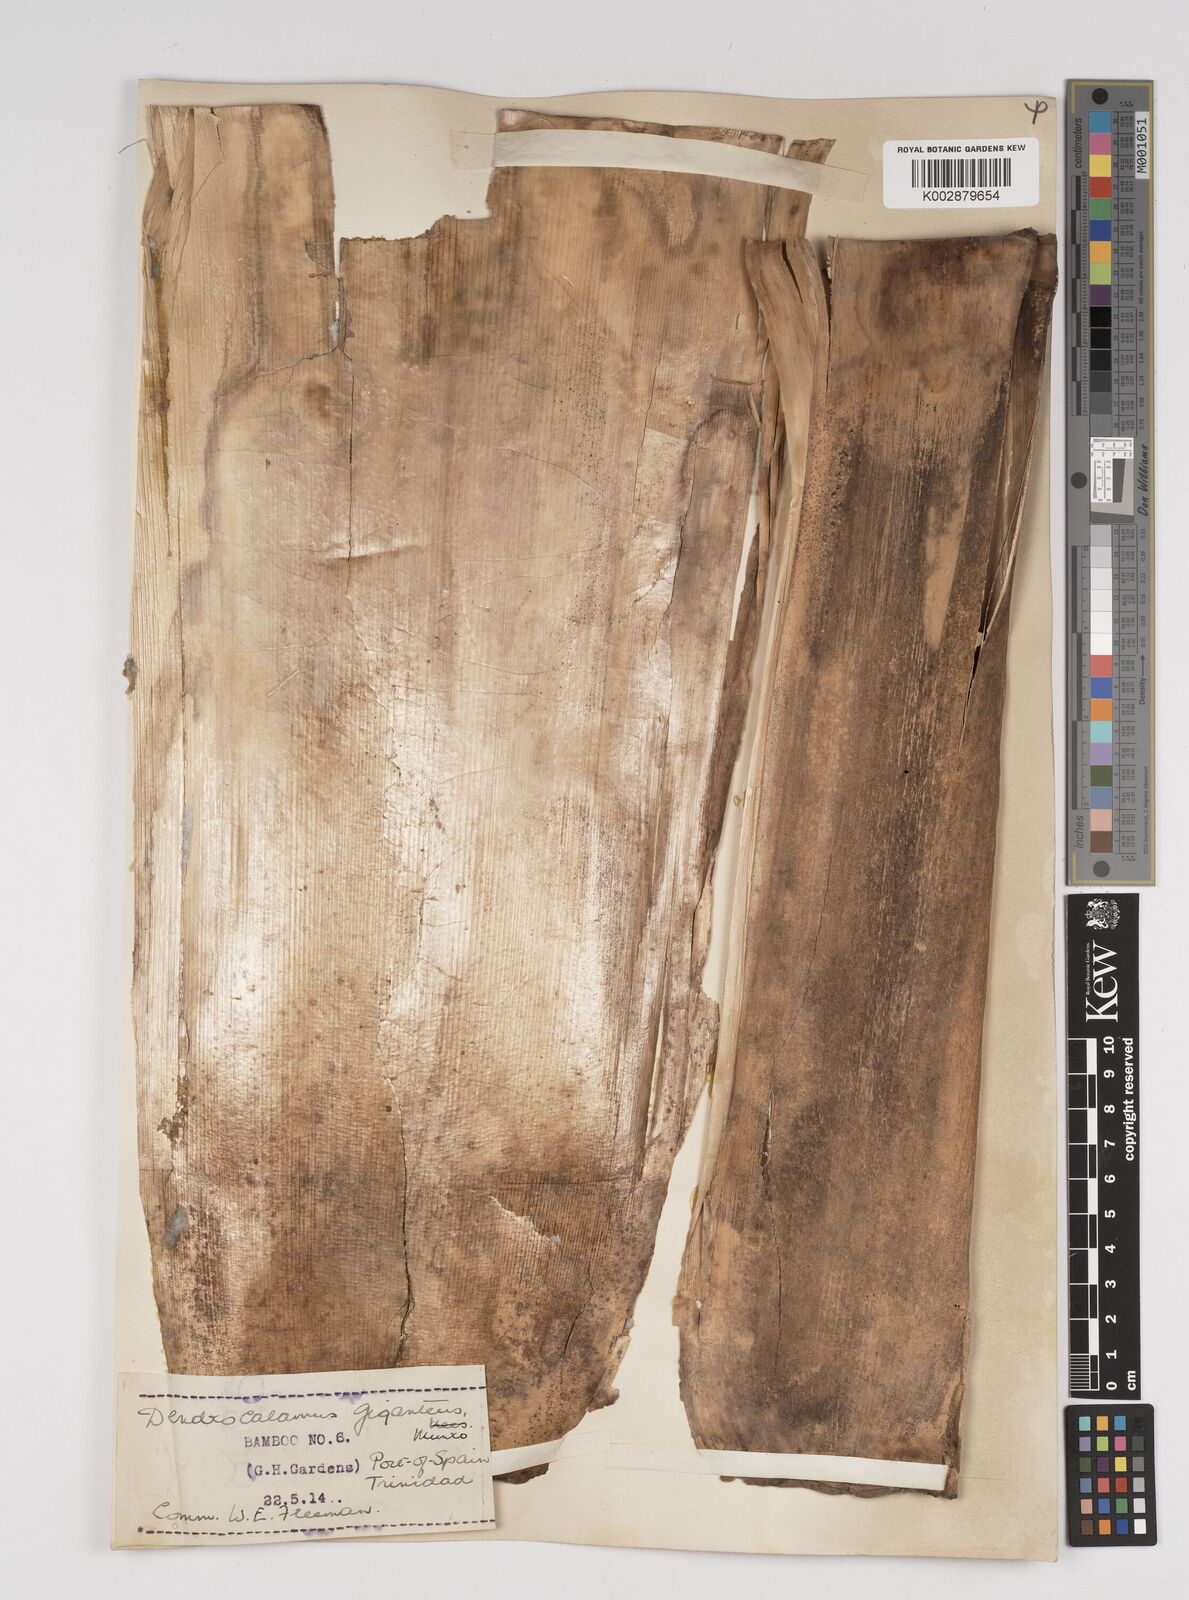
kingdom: Plantae
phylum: Tracheophyta
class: Liliopsida
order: Poales
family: Poaceae
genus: Dendrocalamus
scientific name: Dendrocalamus giganteus
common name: Giant bamboo
